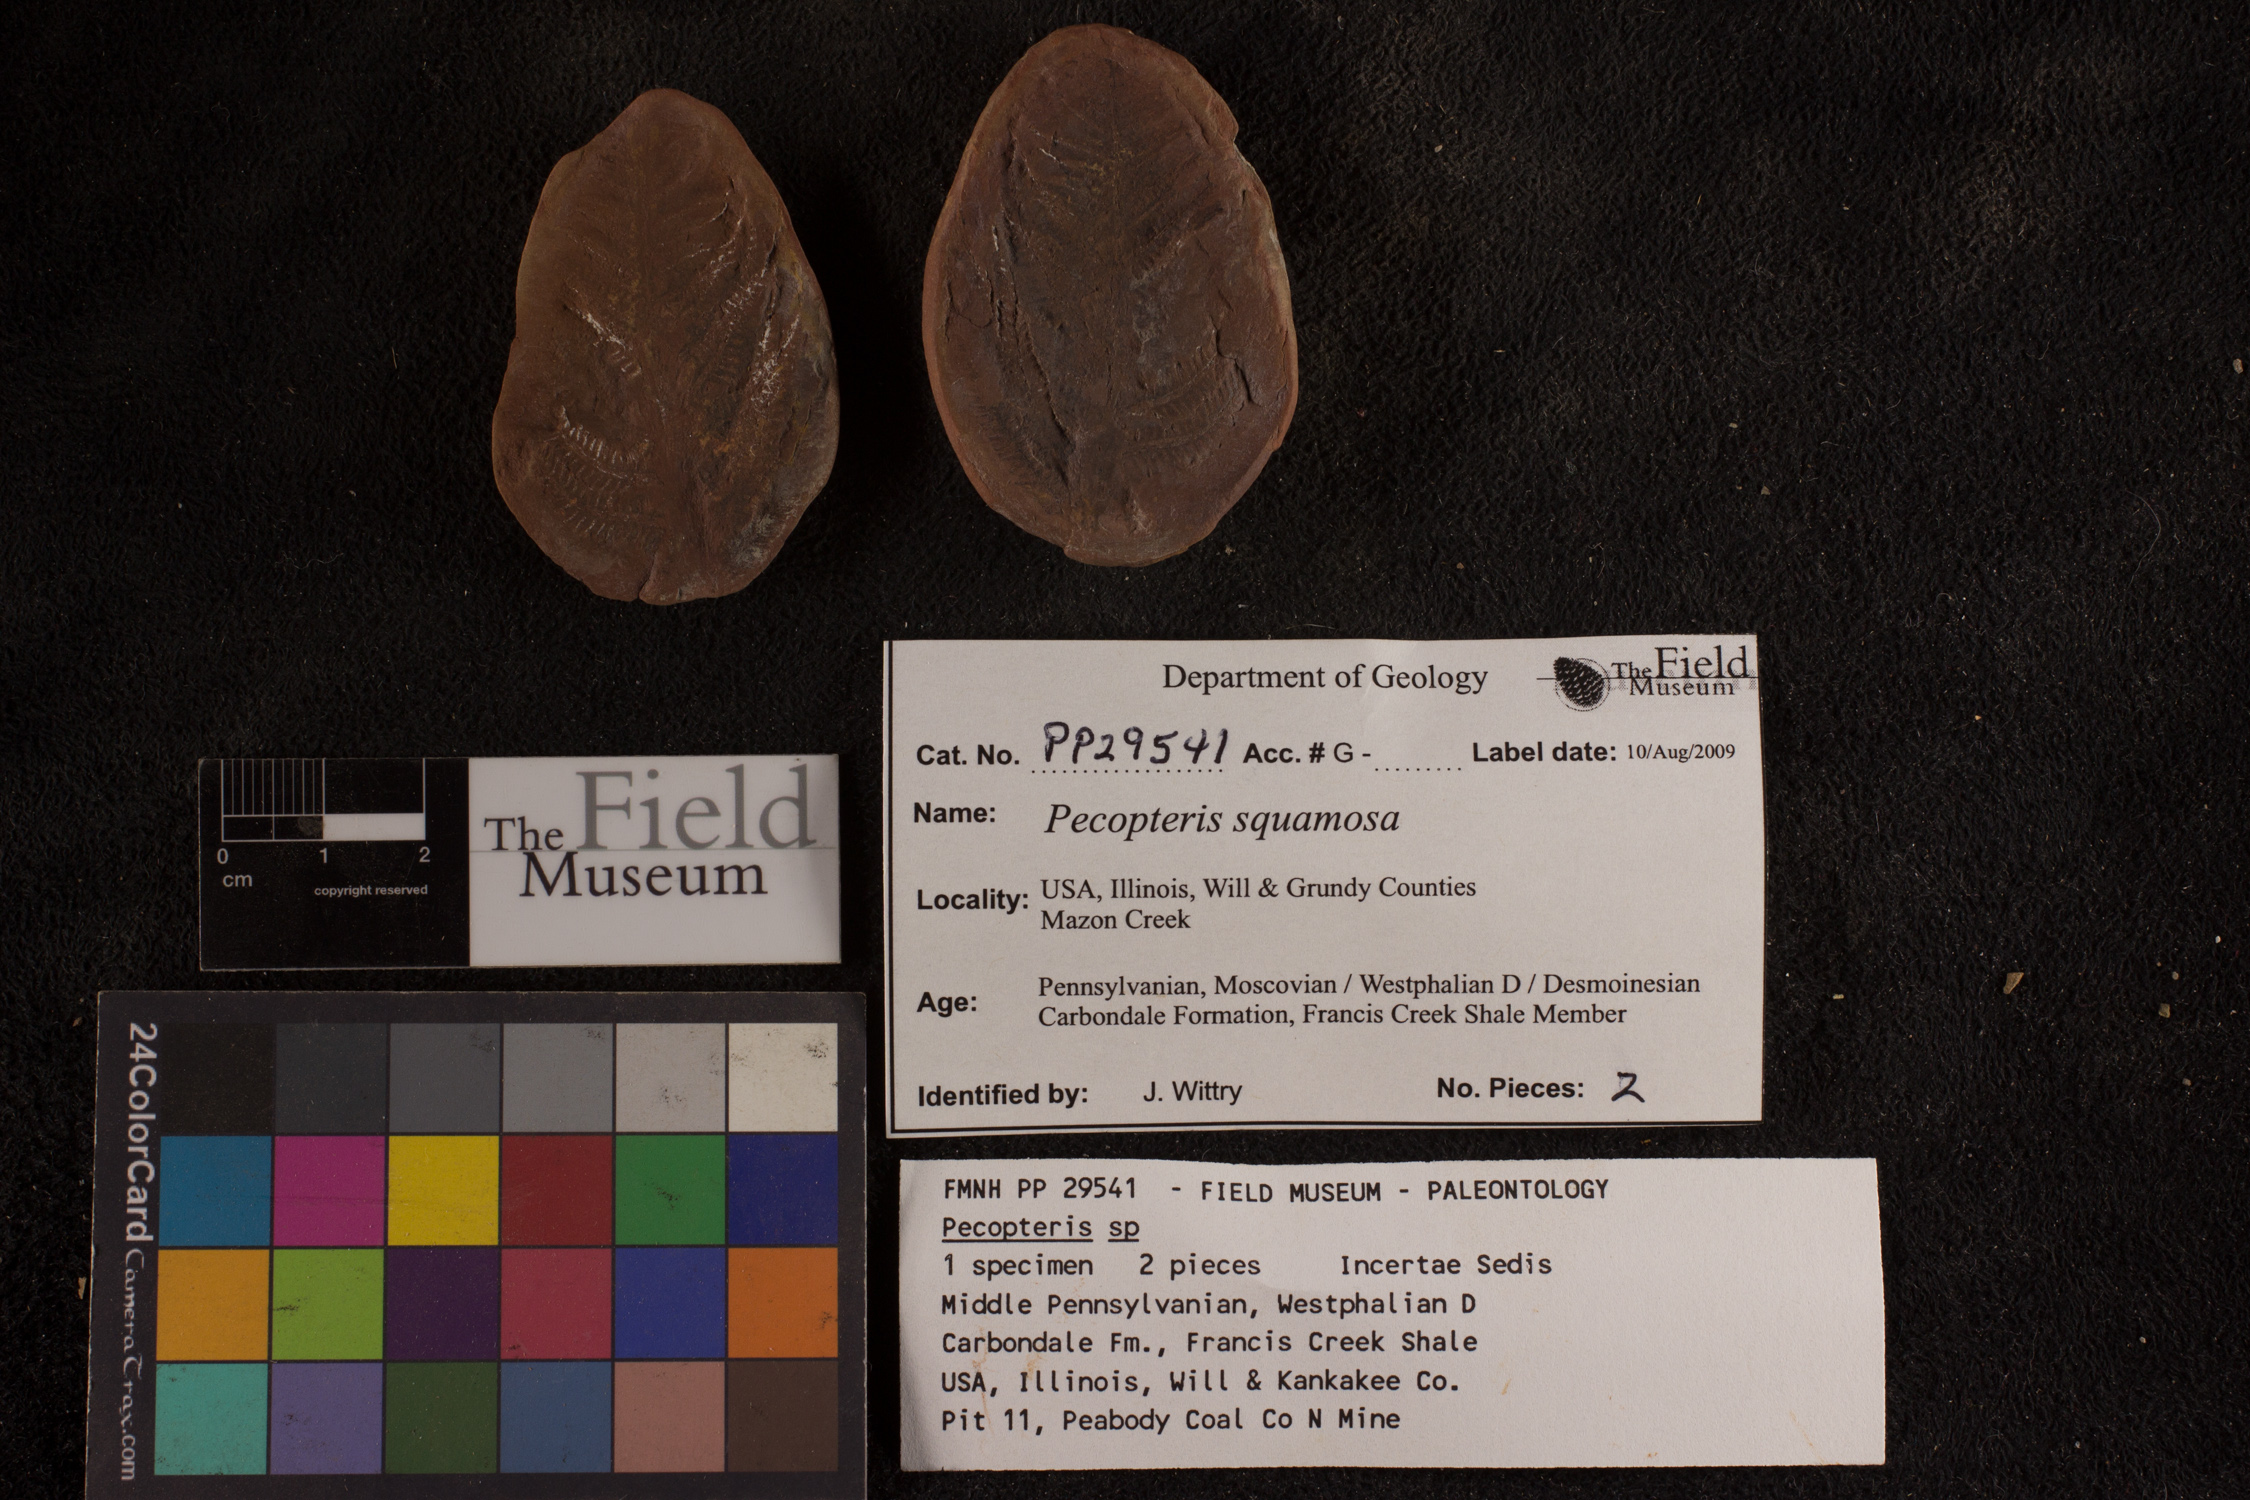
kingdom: Plantae
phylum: Tracheophyta
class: Polypodiopsida
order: Marattiales
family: Asterothecaceae
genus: Pecopteris
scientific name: Pecopteris
